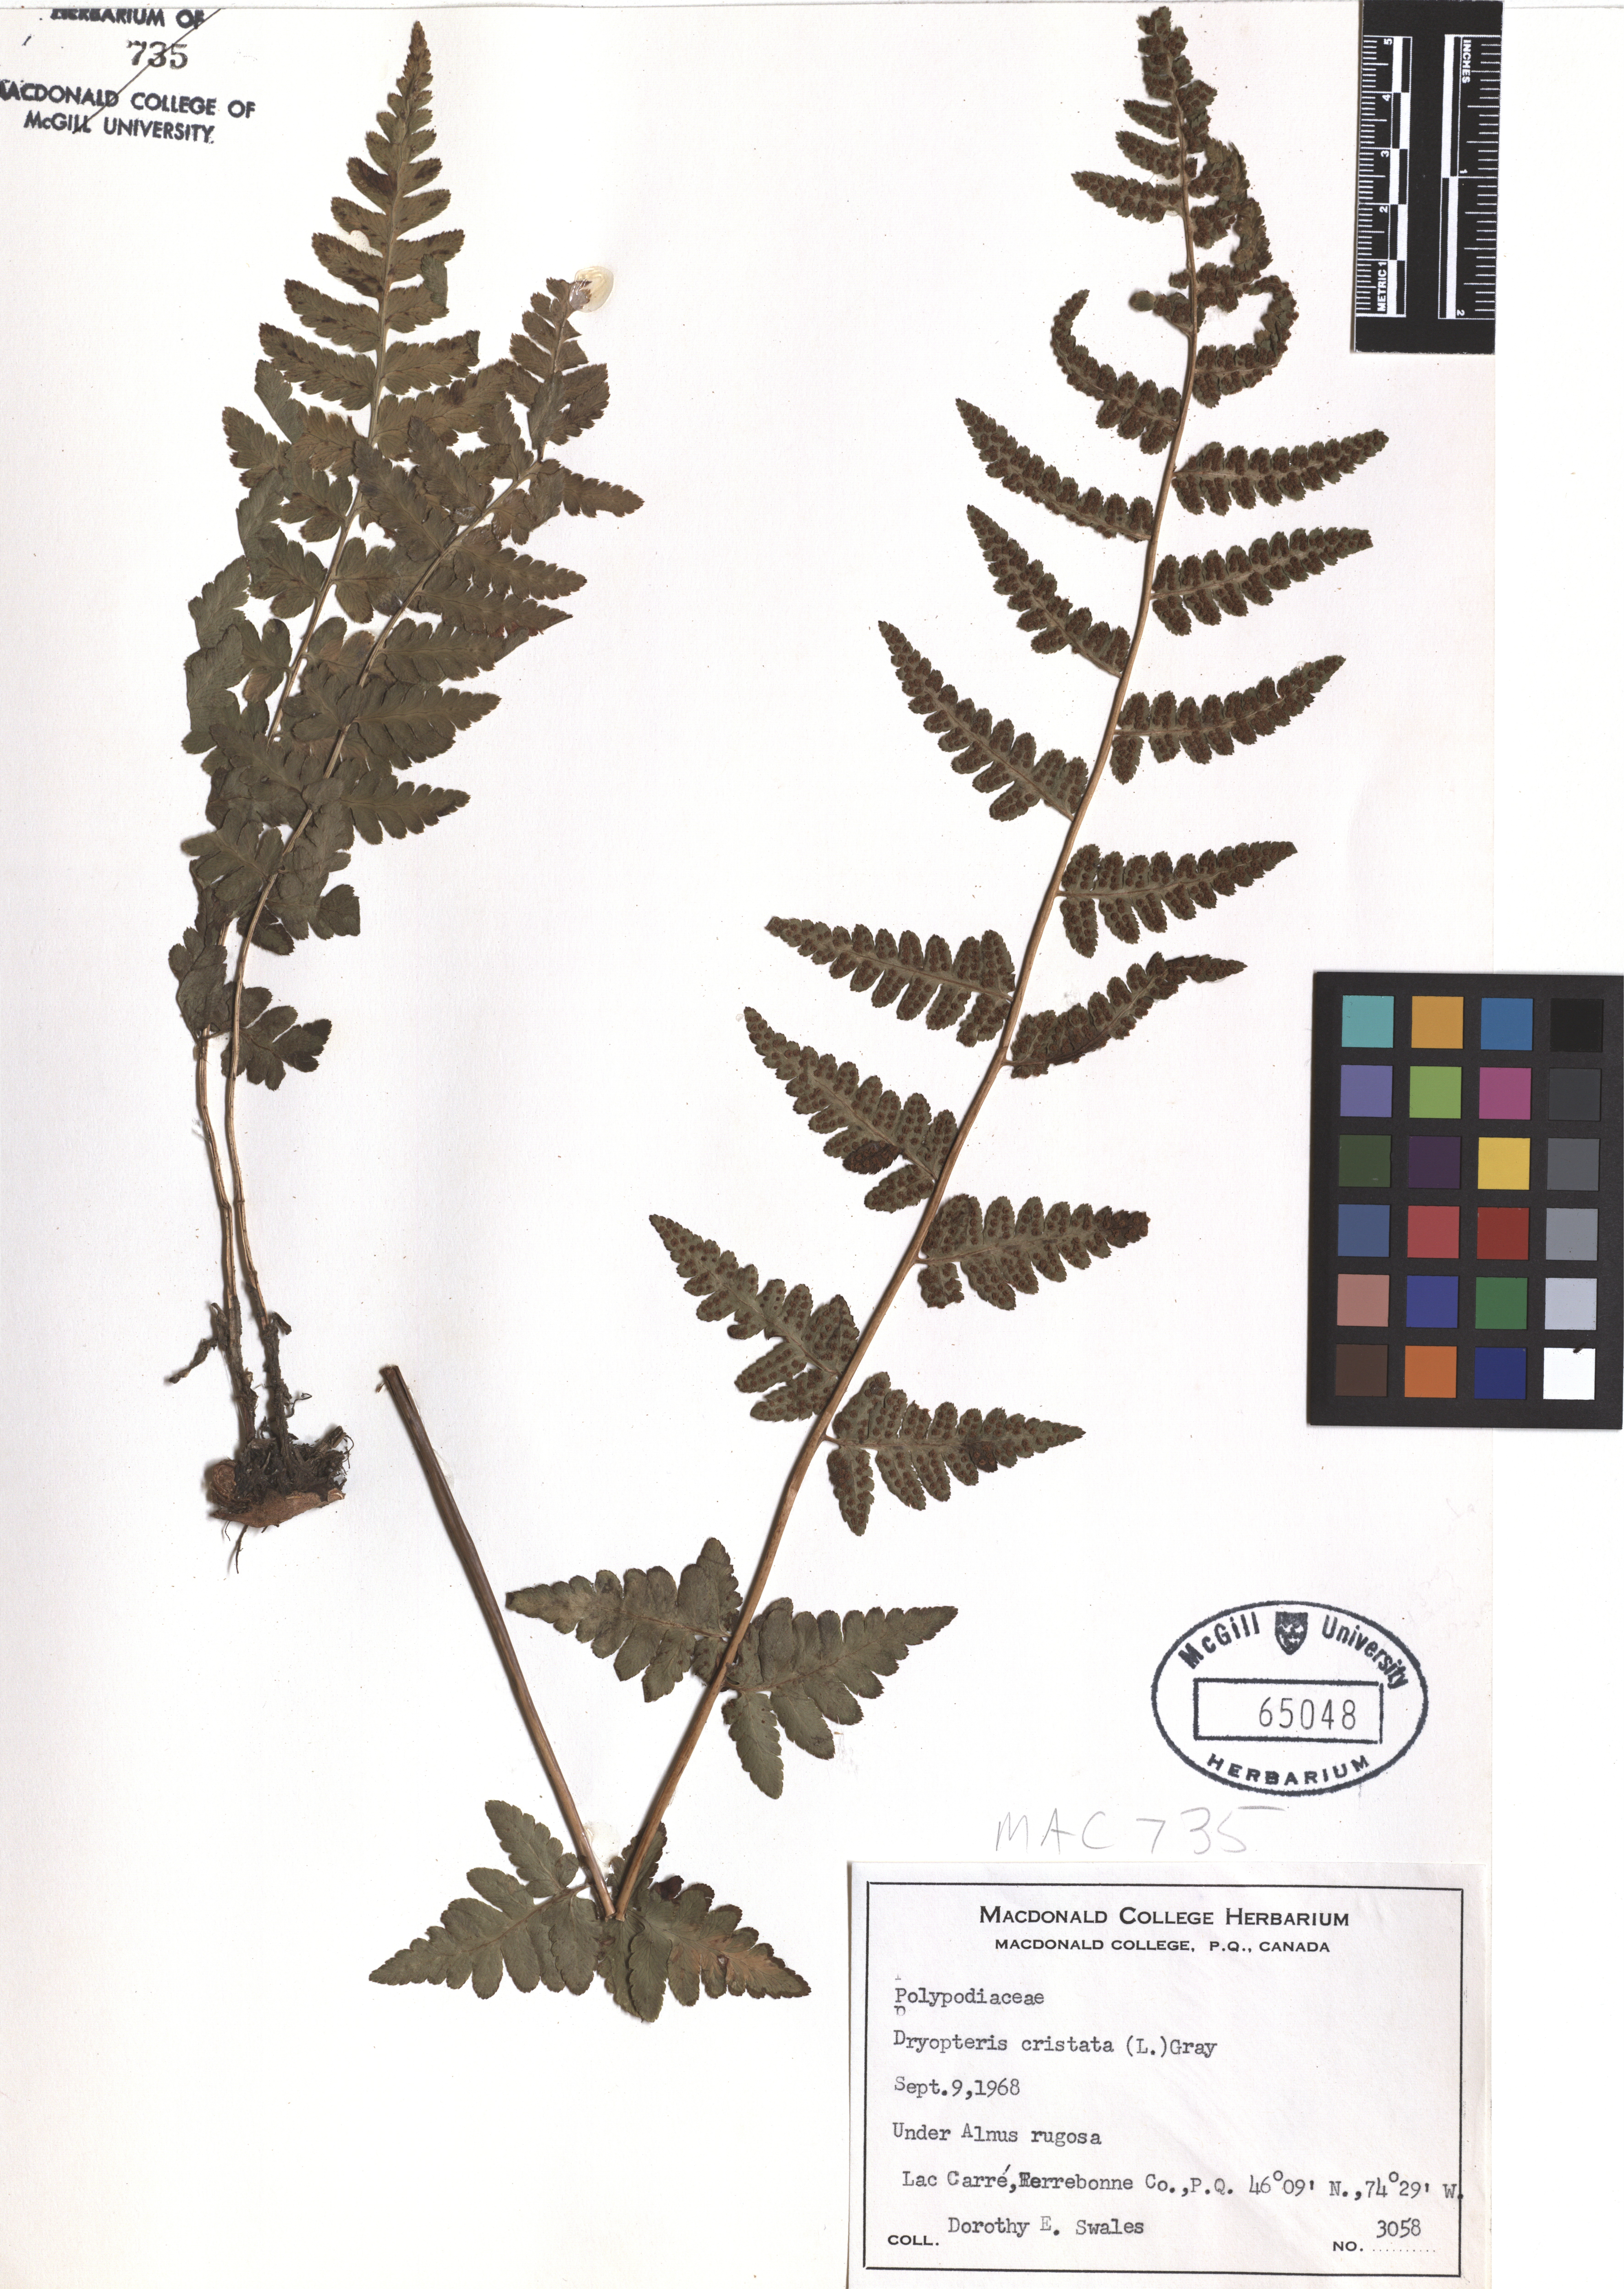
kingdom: Plantae
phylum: Tracheophyta
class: Polypodiopsida
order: Polypodiales
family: Dryopteridaceae
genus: Dryopteris
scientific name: Dryopteris cristata
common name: Crested wood fern
